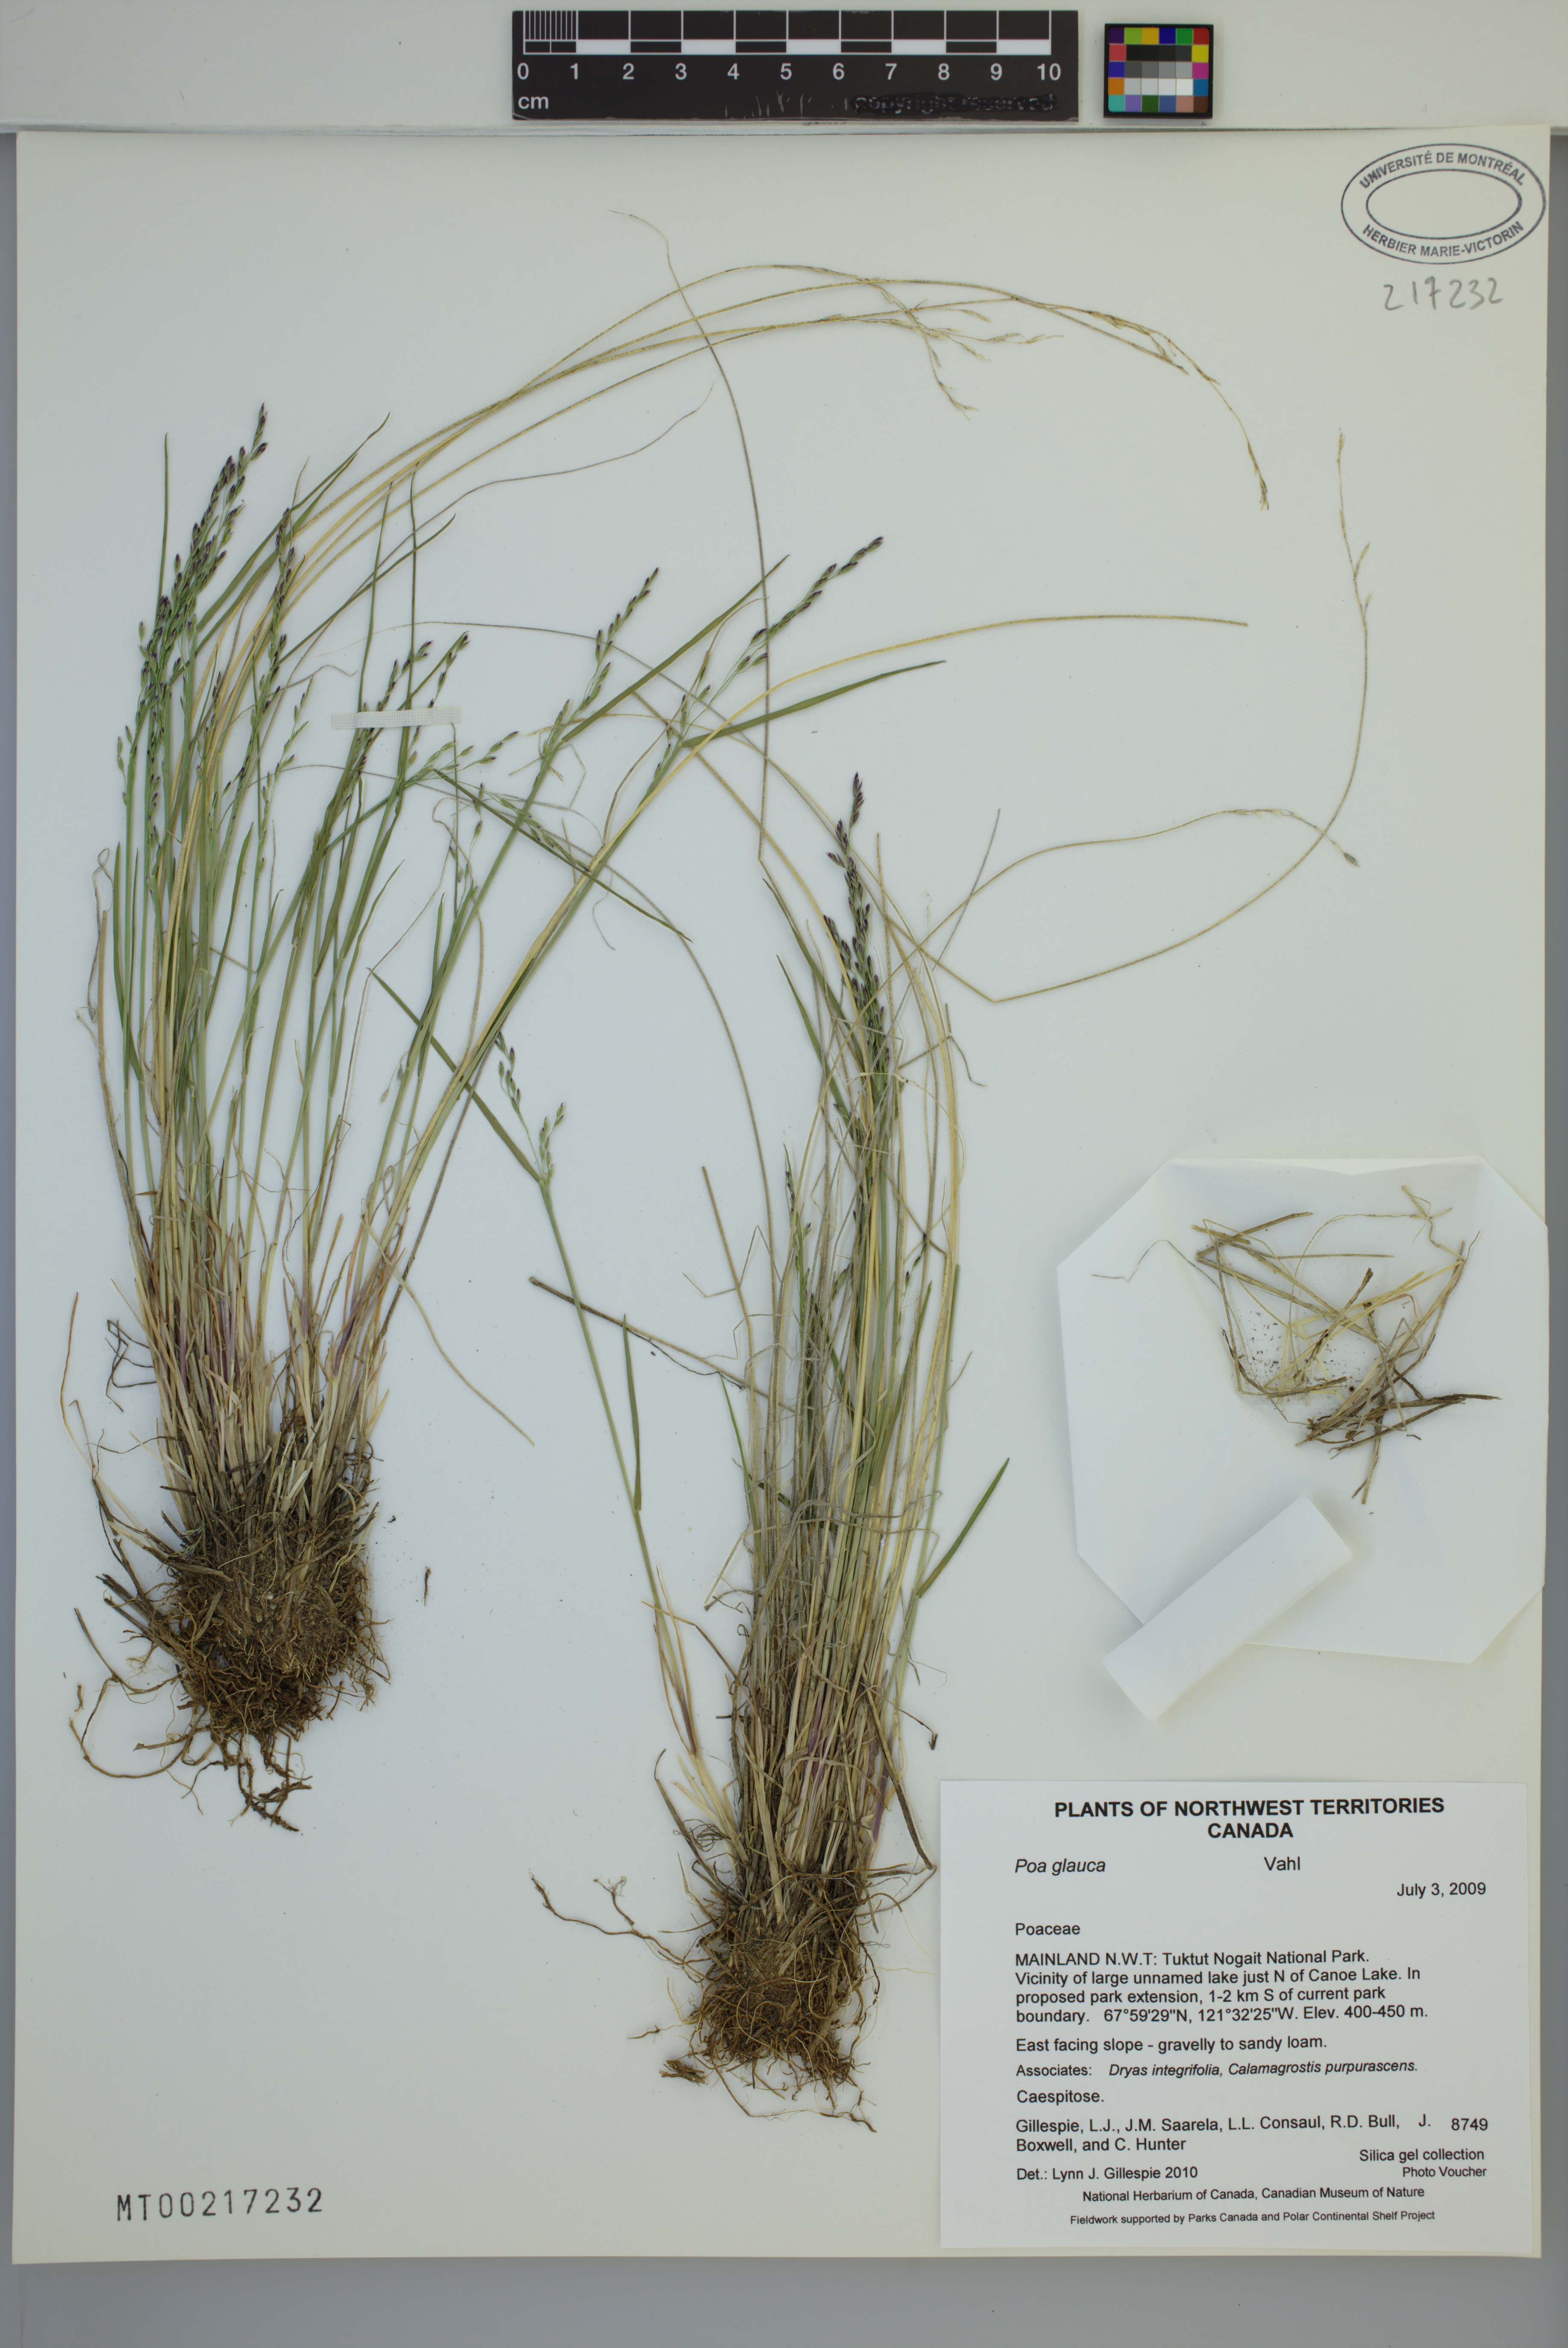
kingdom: Plantae
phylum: Tracheophyta
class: Liliopsida
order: Poales
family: Poaceae
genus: Poa
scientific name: Poa glauca
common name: Glaucous bluegrass
